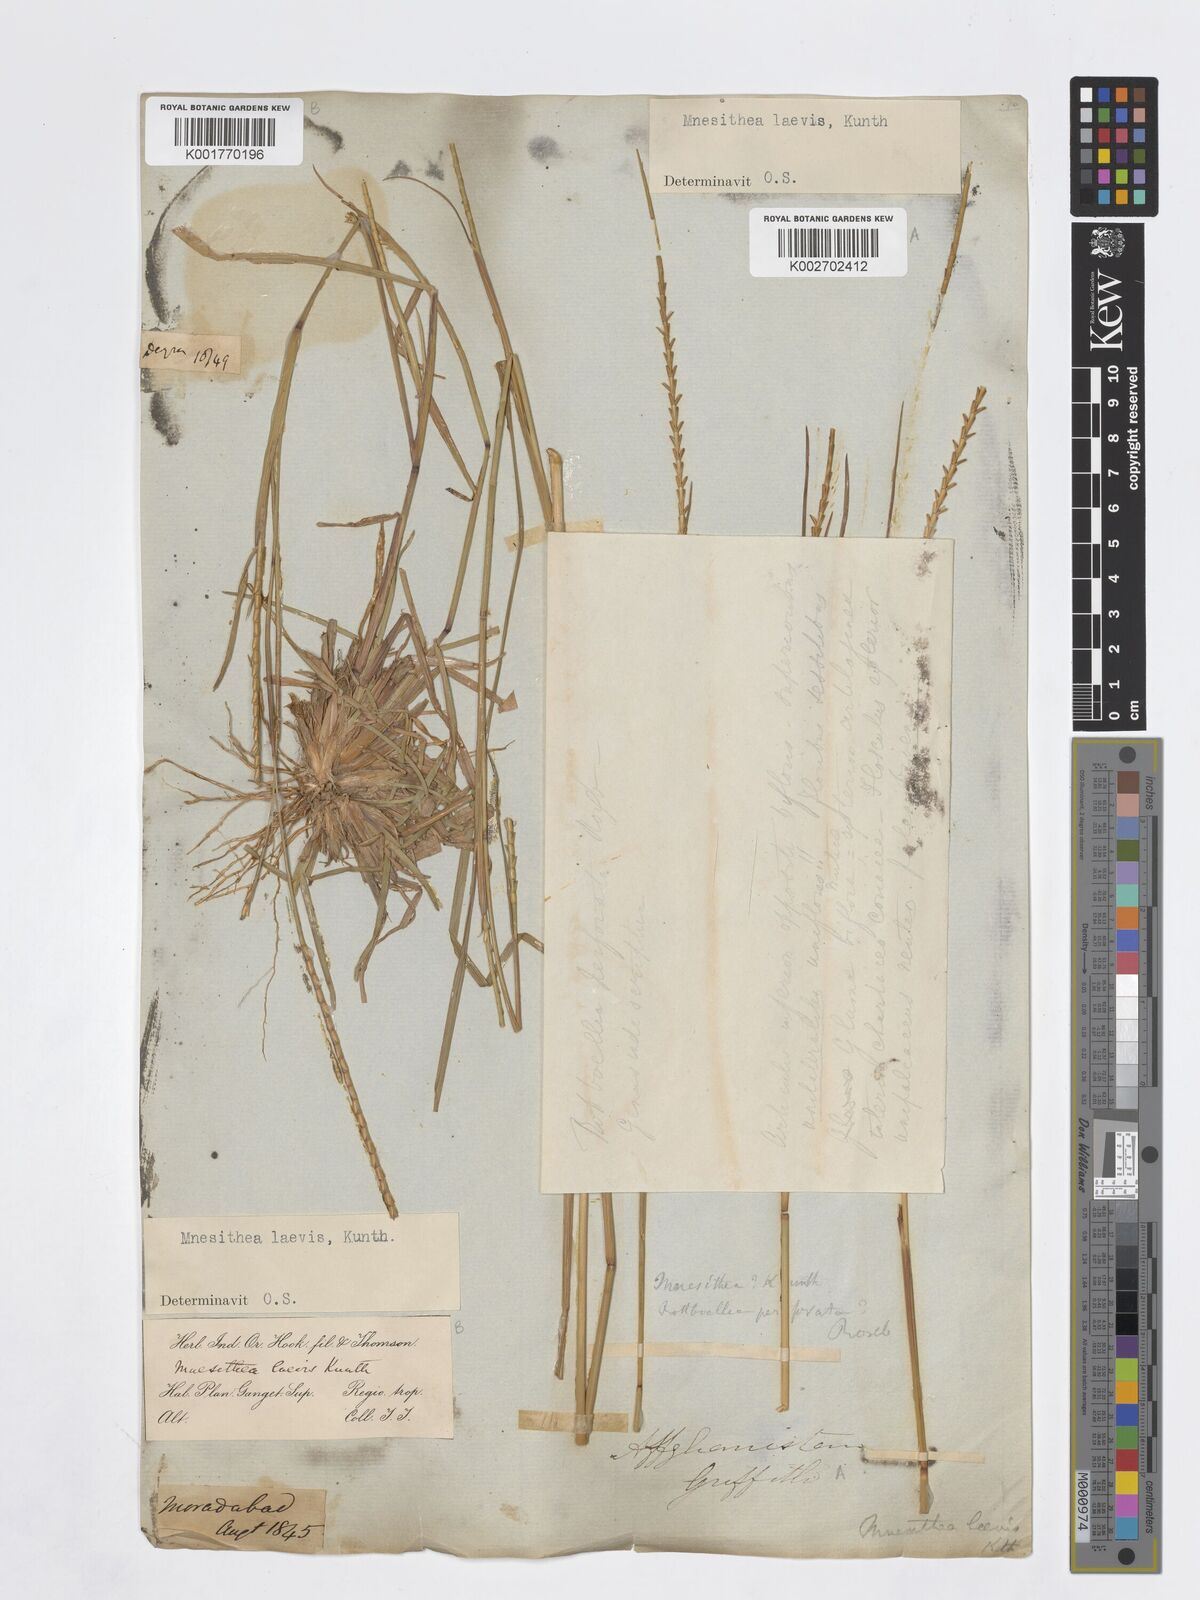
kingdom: Plantae
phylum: Tracheophyta
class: Liliopsida
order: Poales
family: Poaceae
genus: Mnesithea
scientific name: Mnesithea laevis
